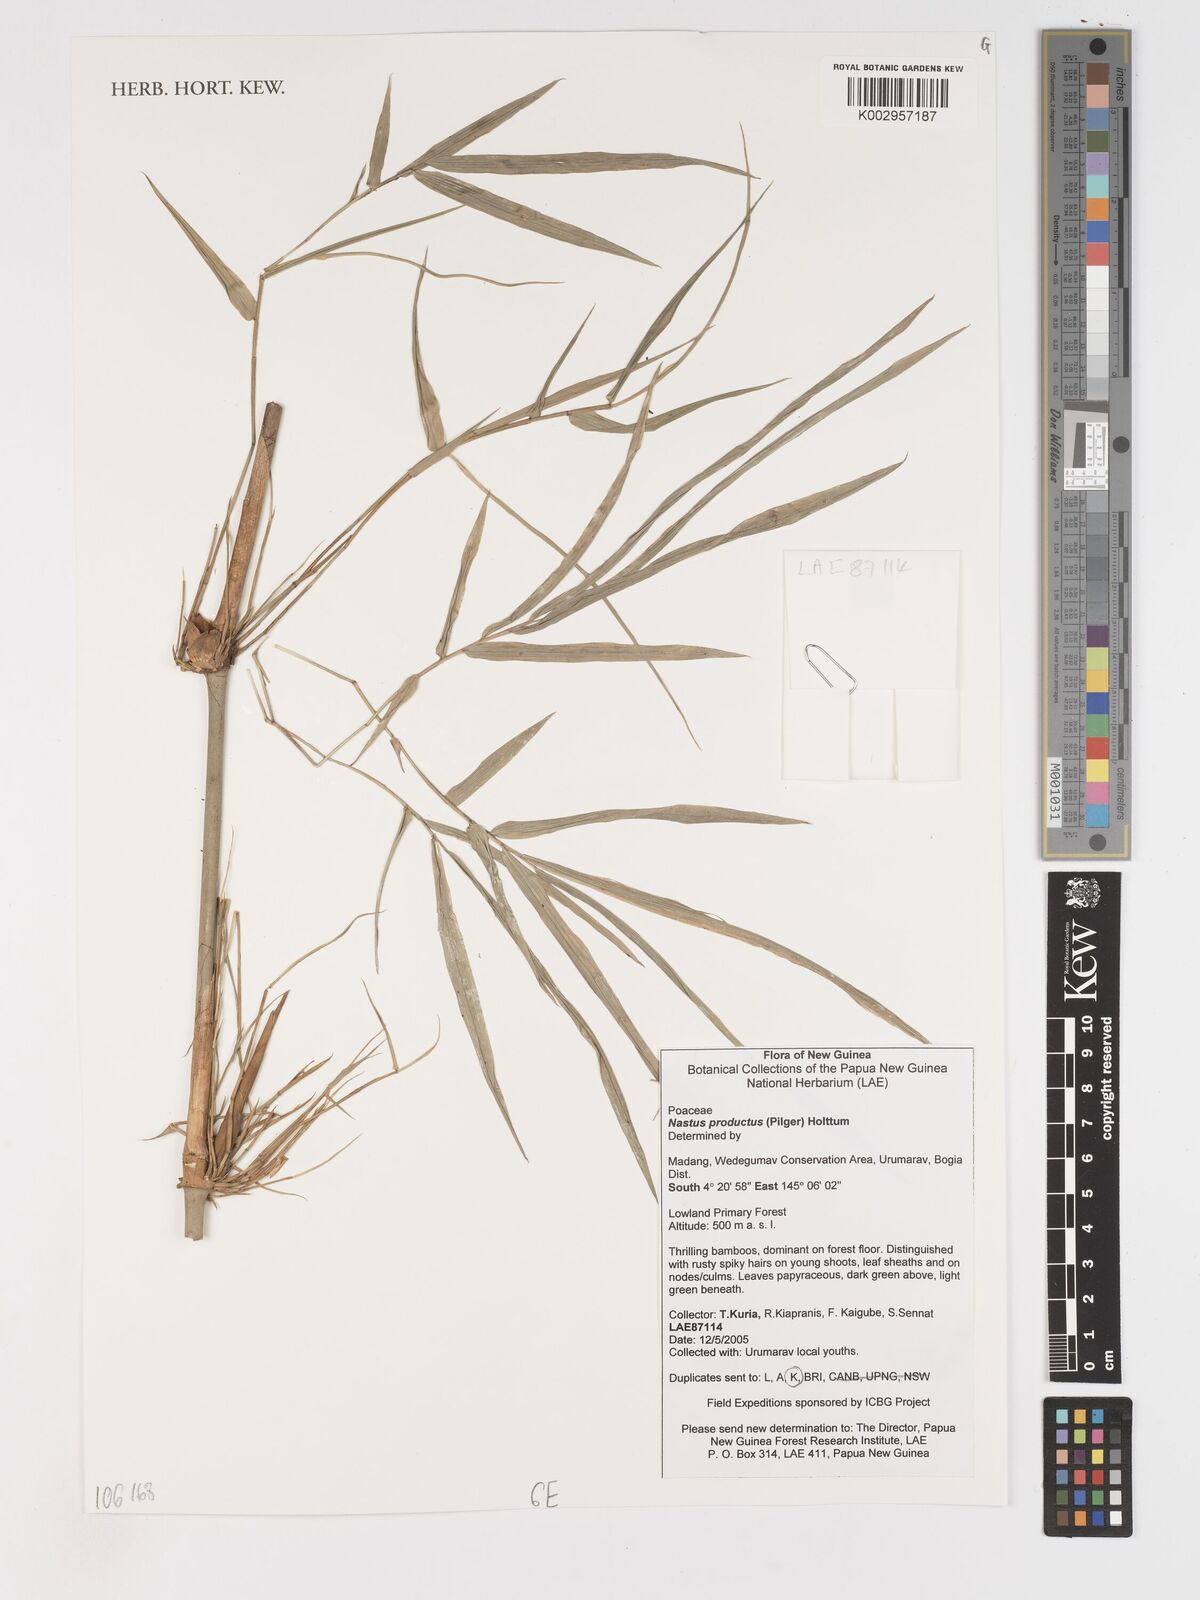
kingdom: Plantae
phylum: Tracheophyta
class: Liliopsida
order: Poales
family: Poaceae
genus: Widjajachloa
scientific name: Widjajachloa producta
